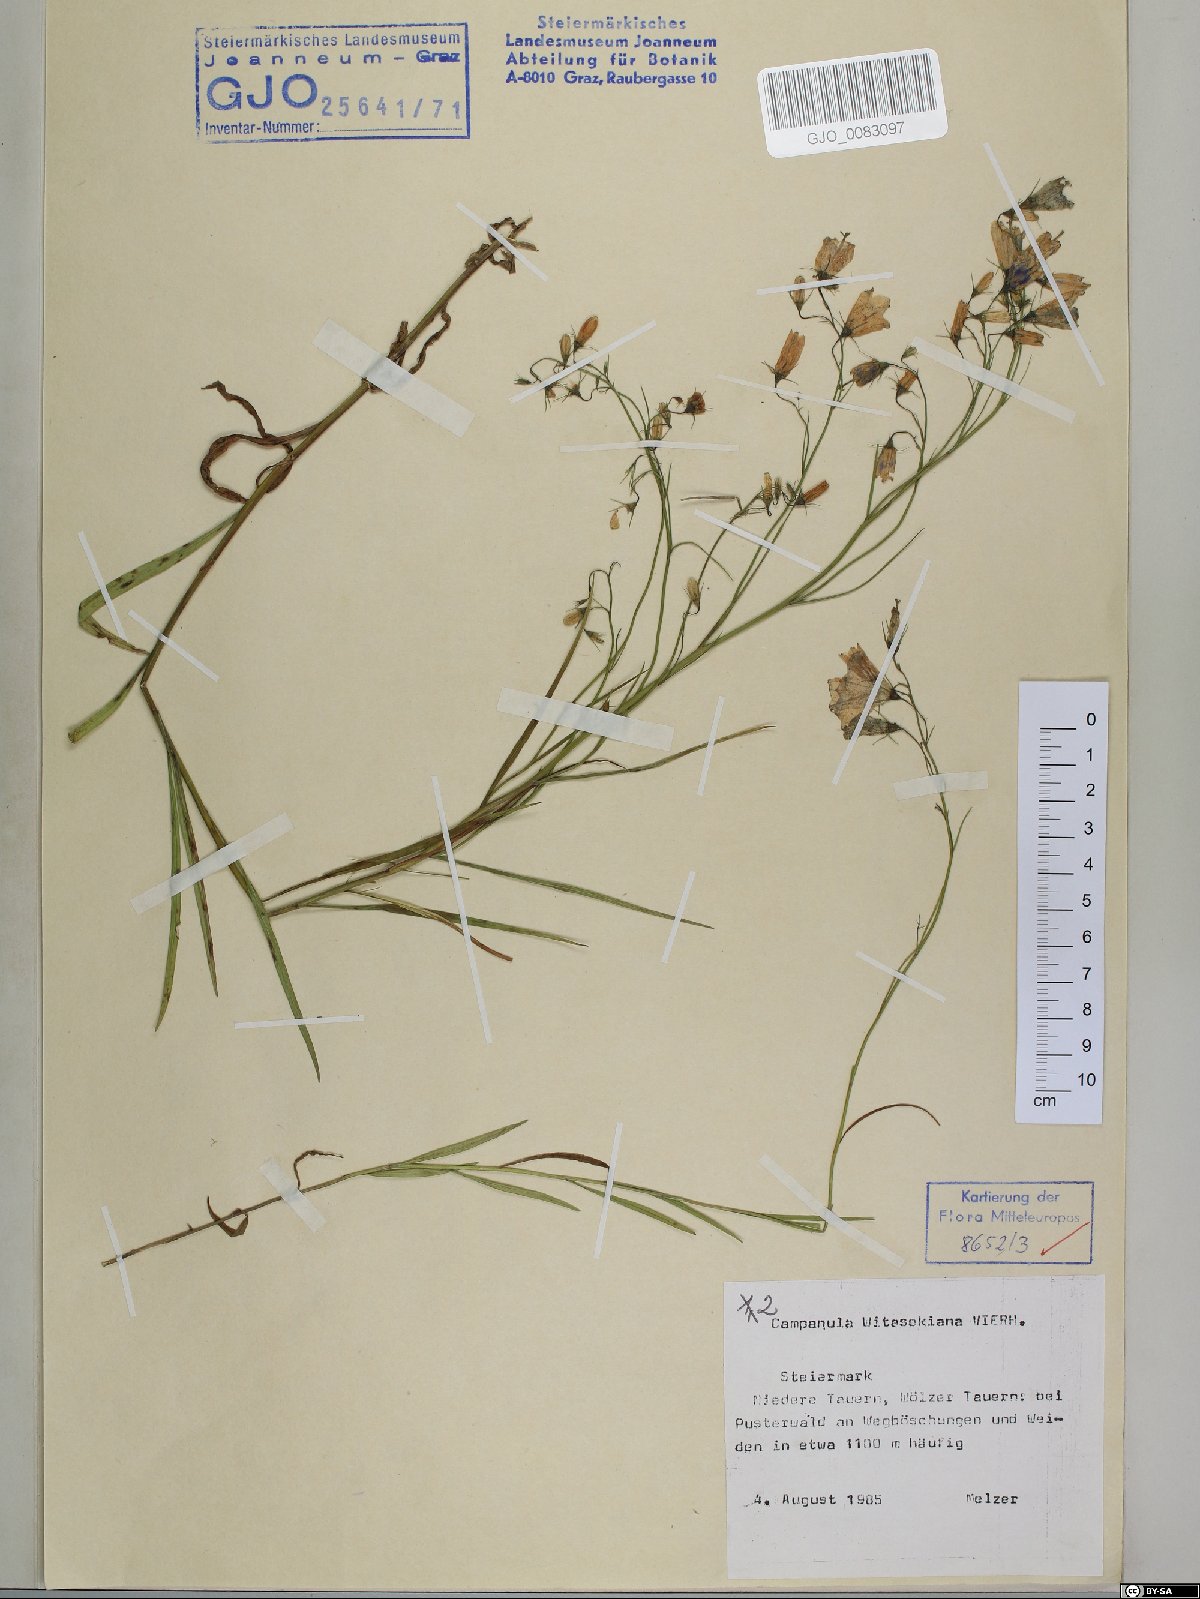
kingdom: Plantae
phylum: Tracheophyta
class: Magnoliopsida
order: Asterales
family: Campanulaceae
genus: Campanula
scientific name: Campanula witasekiana
